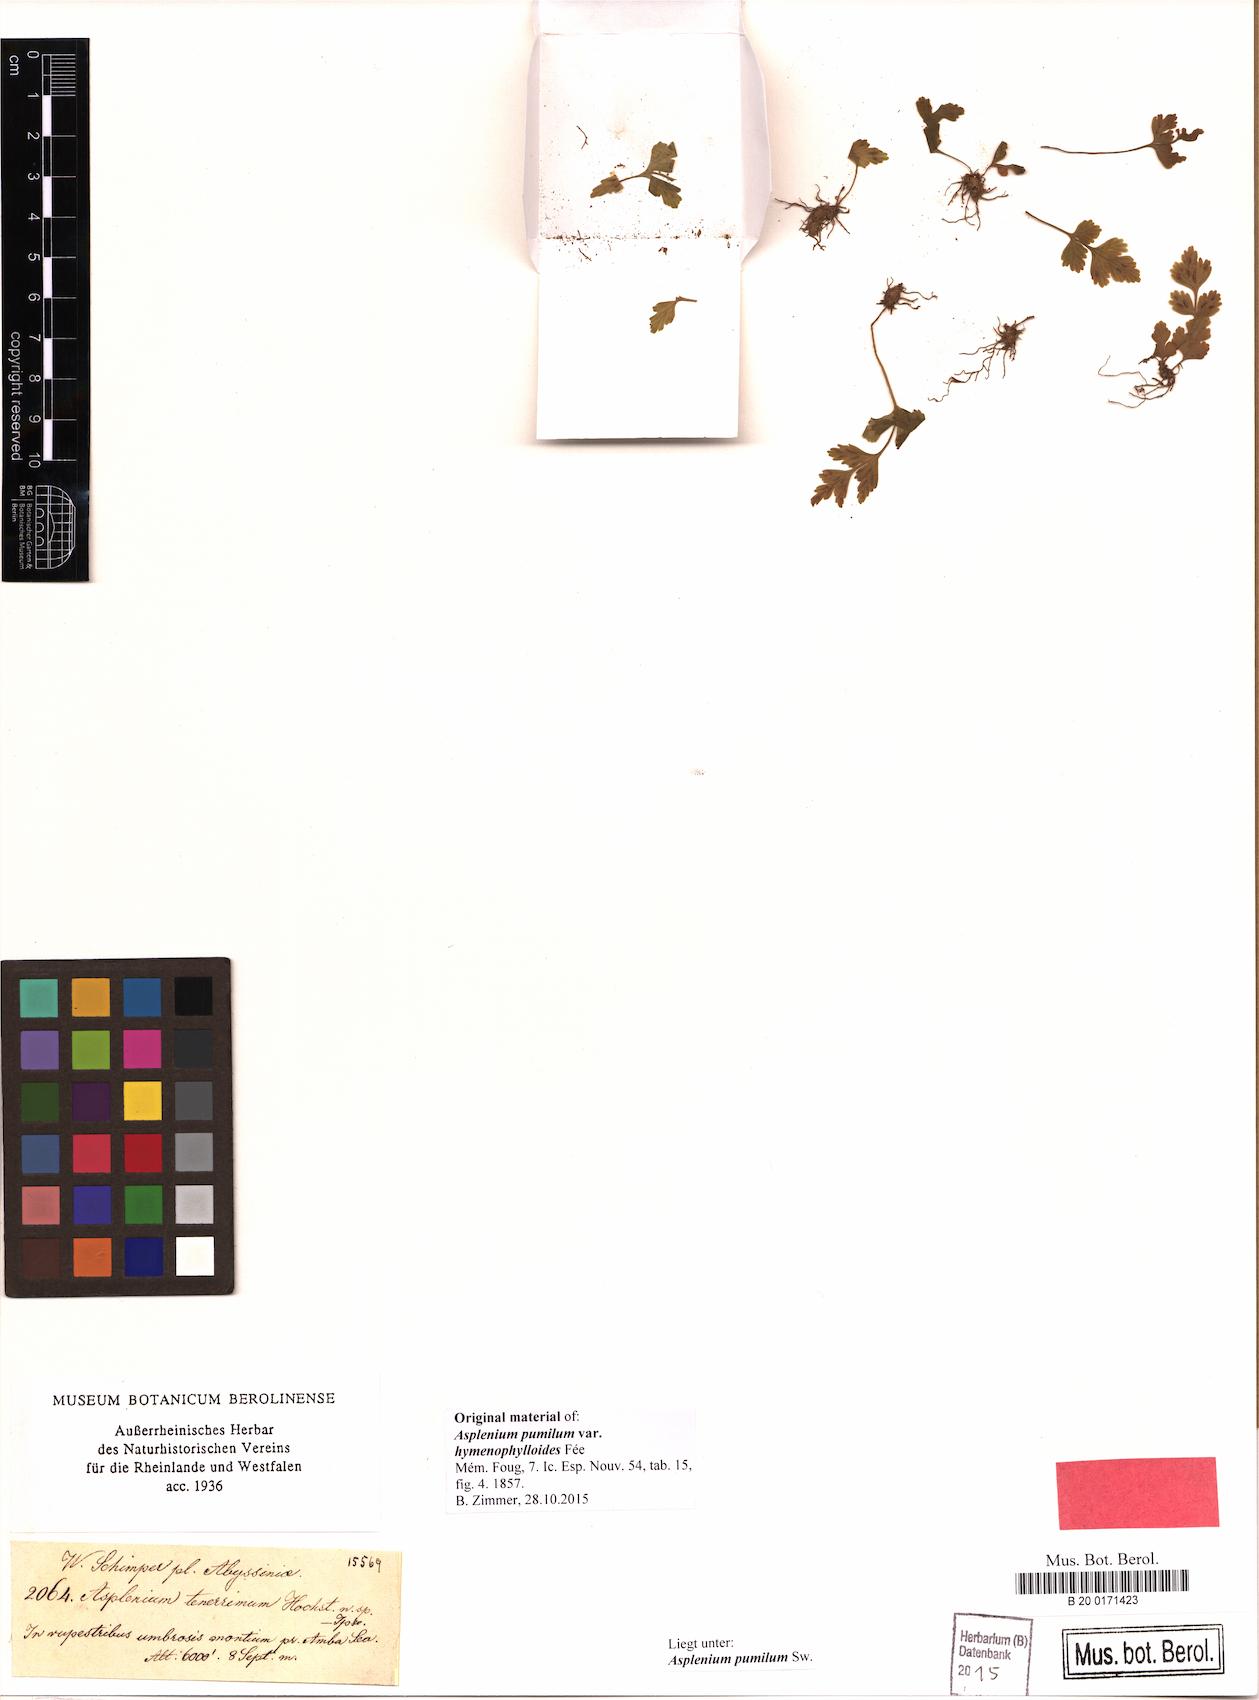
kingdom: Plantae
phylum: Tracheophyta
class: Polypodiopsida
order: Polypodiales
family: Aspleniaceae
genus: Asplenium
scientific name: Asplenium pumilum
